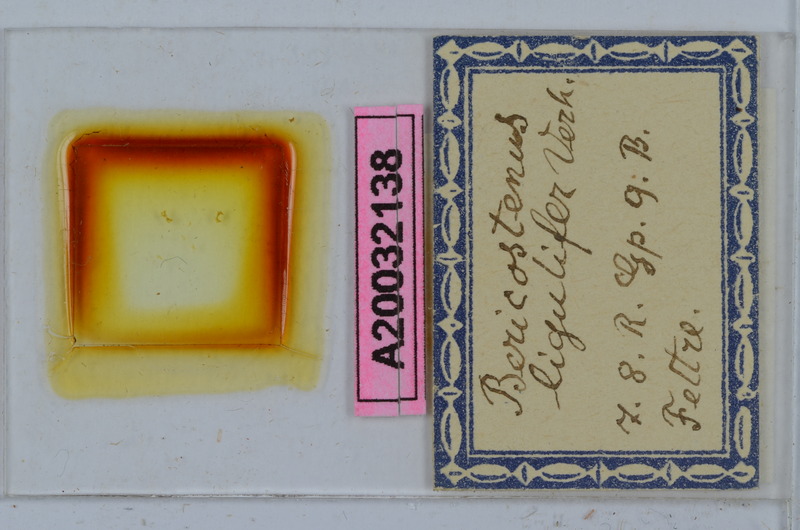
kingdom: Animalia
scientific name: Animalia
